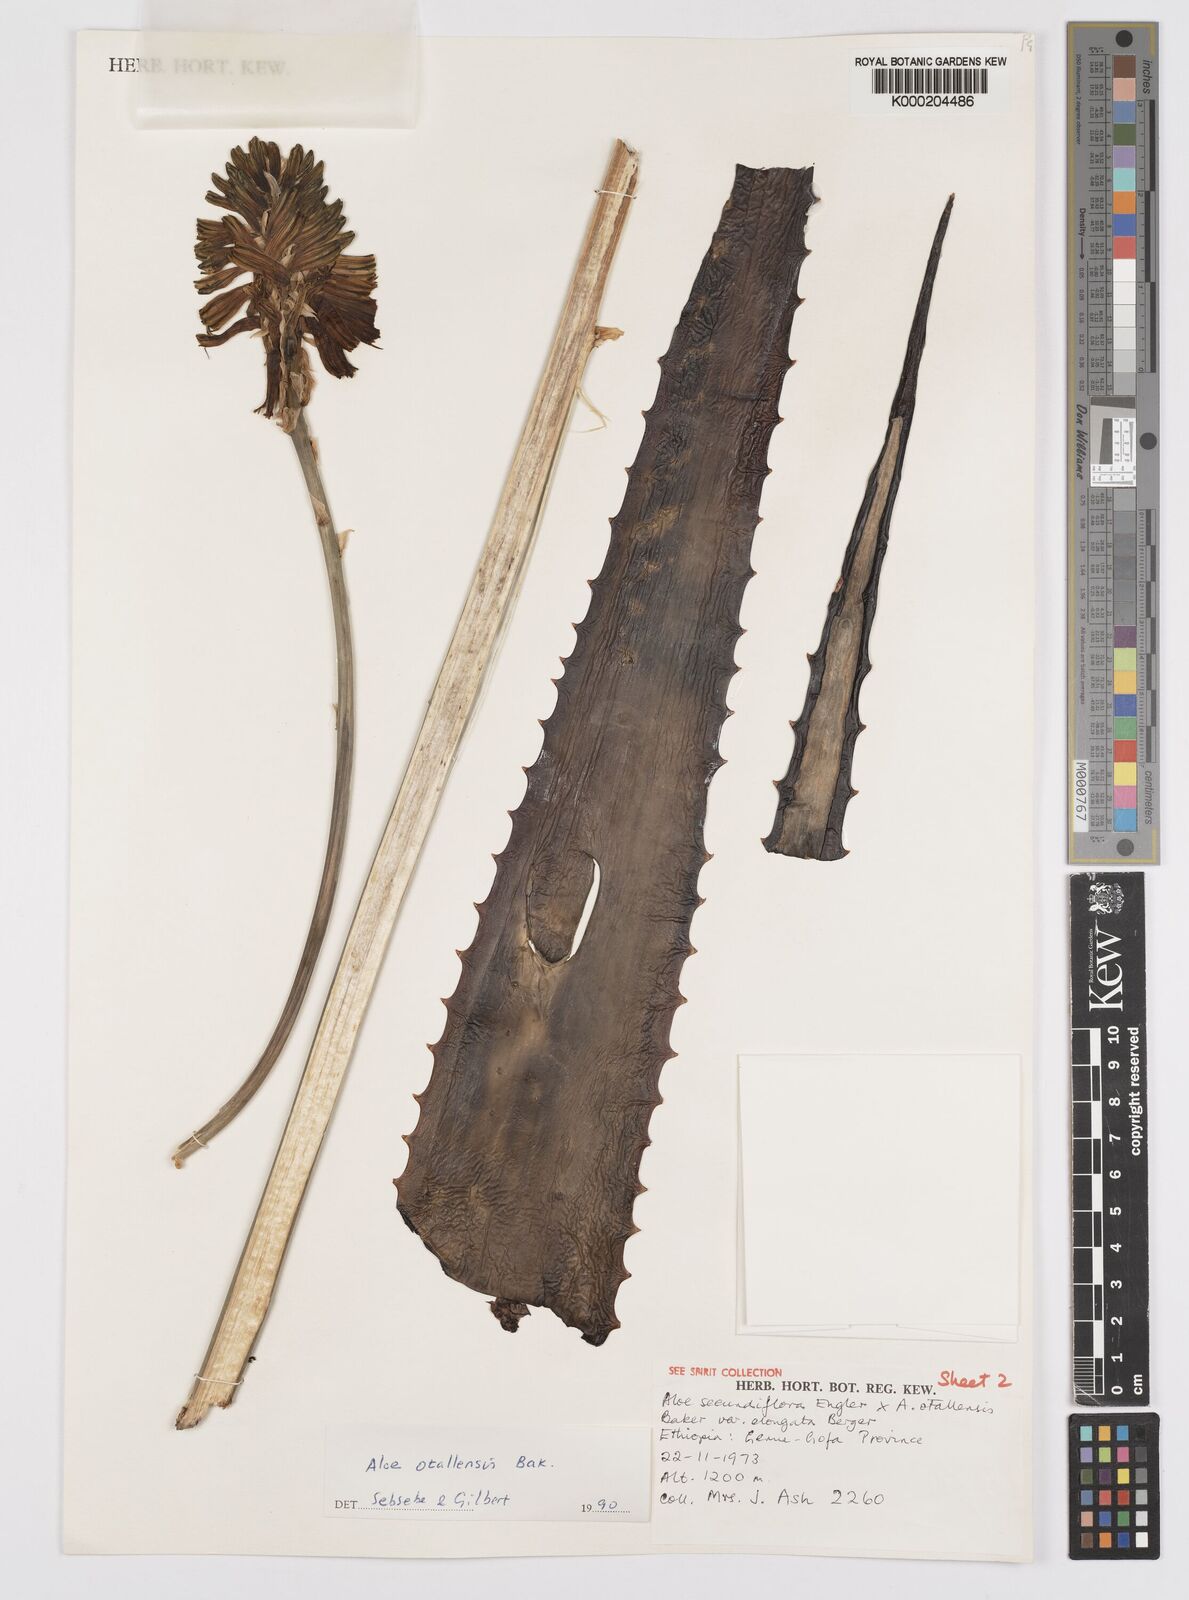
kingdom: Plantae
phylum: Tracheophyta
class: Liliopsida
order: Asparagales
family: Asphodelaceae
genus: Aloe
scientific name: Aloe otallensis
